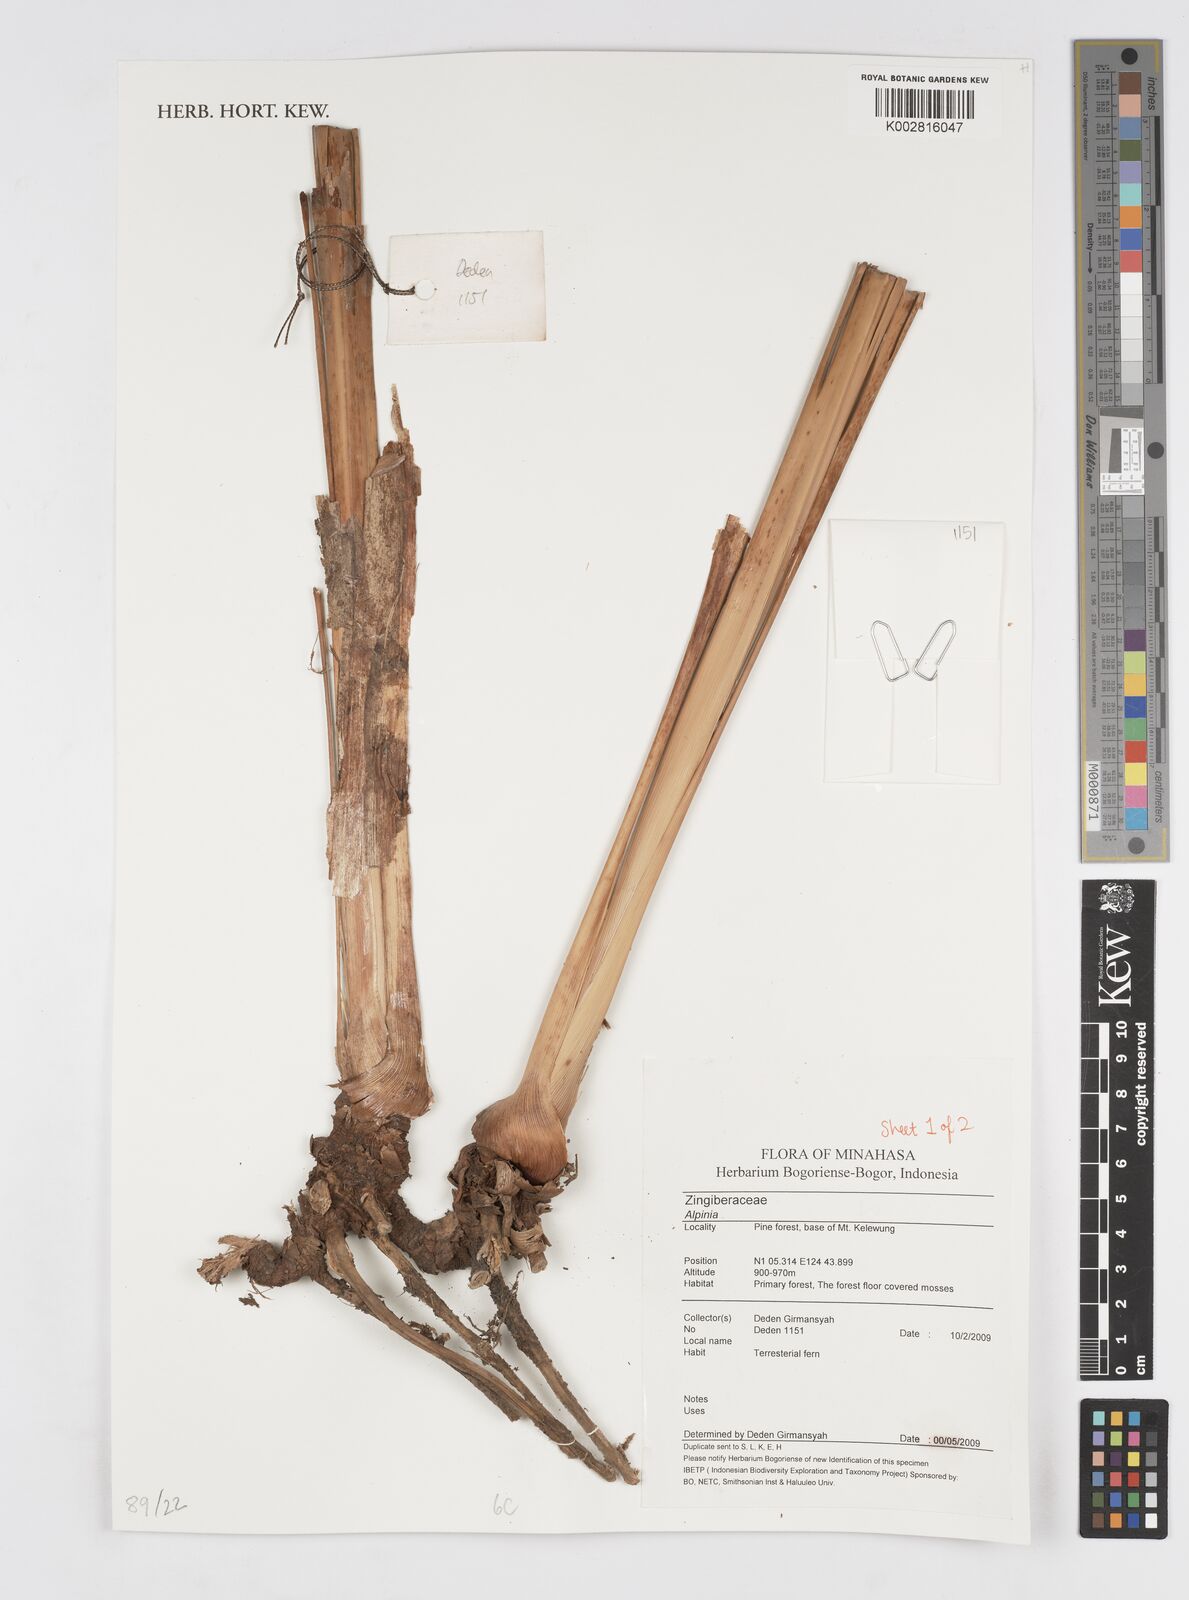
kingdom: Plantae
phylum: Tracheophyta
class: Liliopsida
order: Zingiberales
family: Zingiberaceae
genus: Alpinia
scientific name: Alpinia
